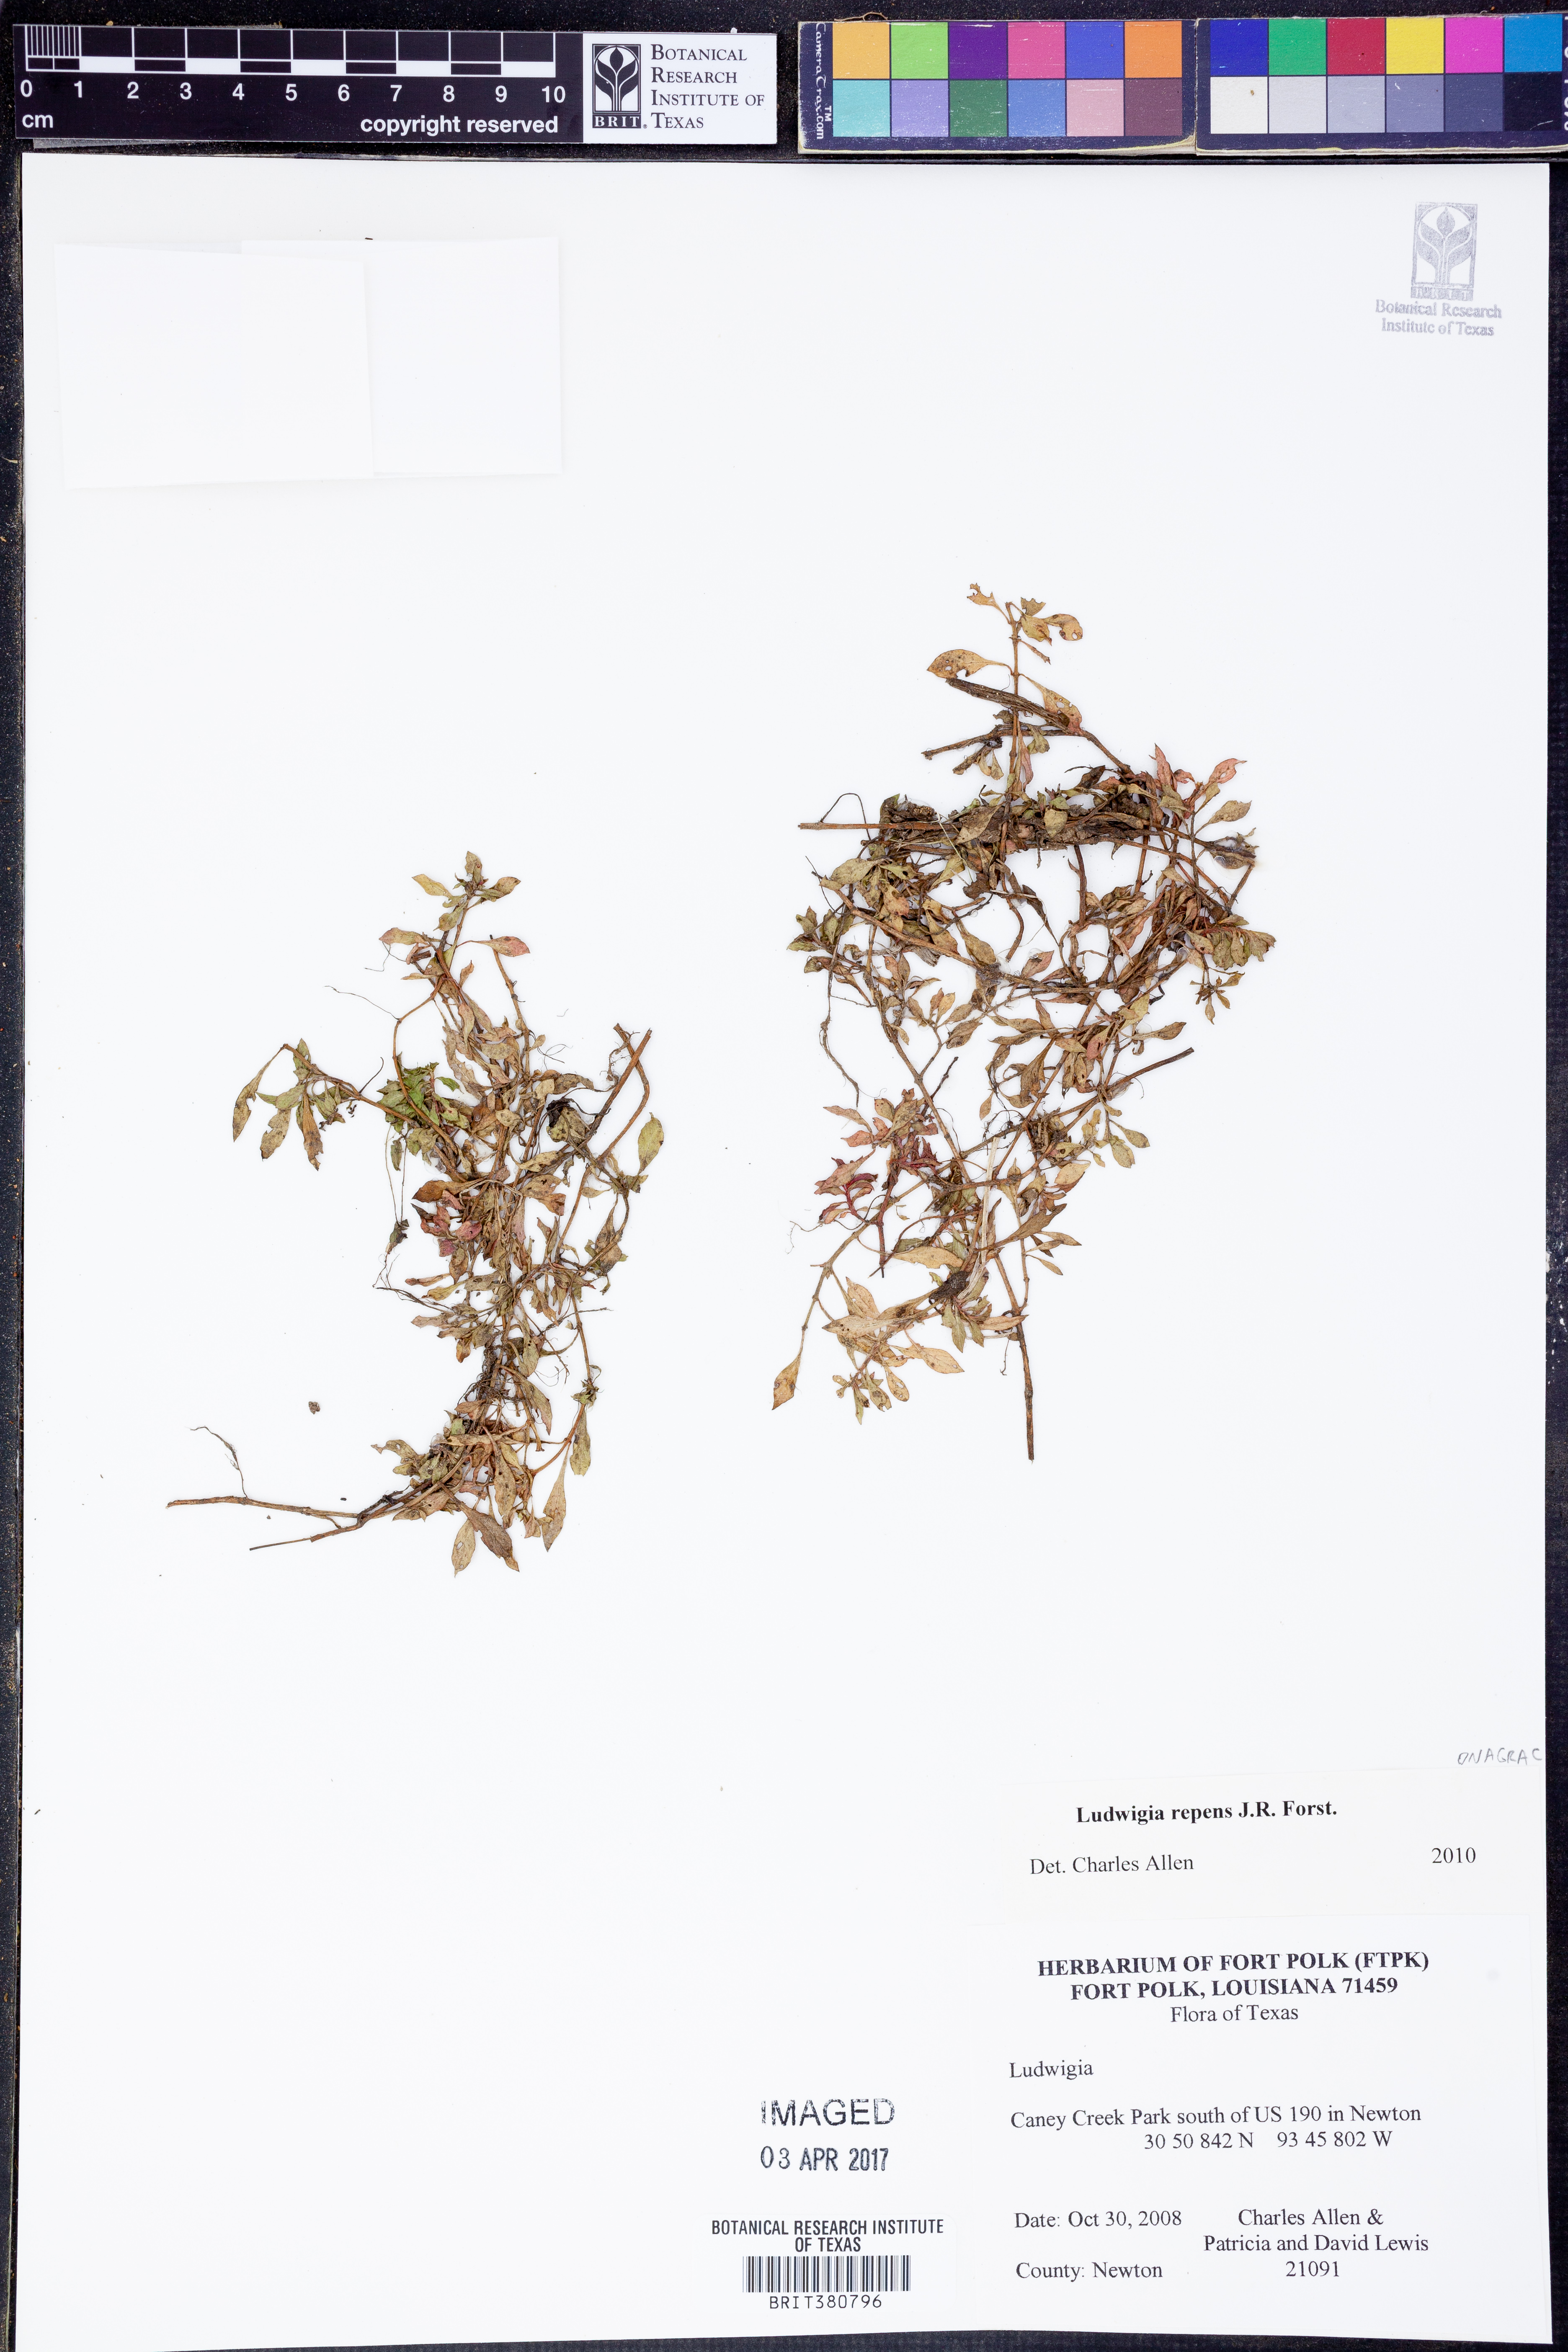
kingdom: Plantae
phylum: Tracheophyta
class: Magnoliopsida
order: Myrtales
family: Onagraceae
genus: Ludwigia
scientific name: Ludwigia repens
